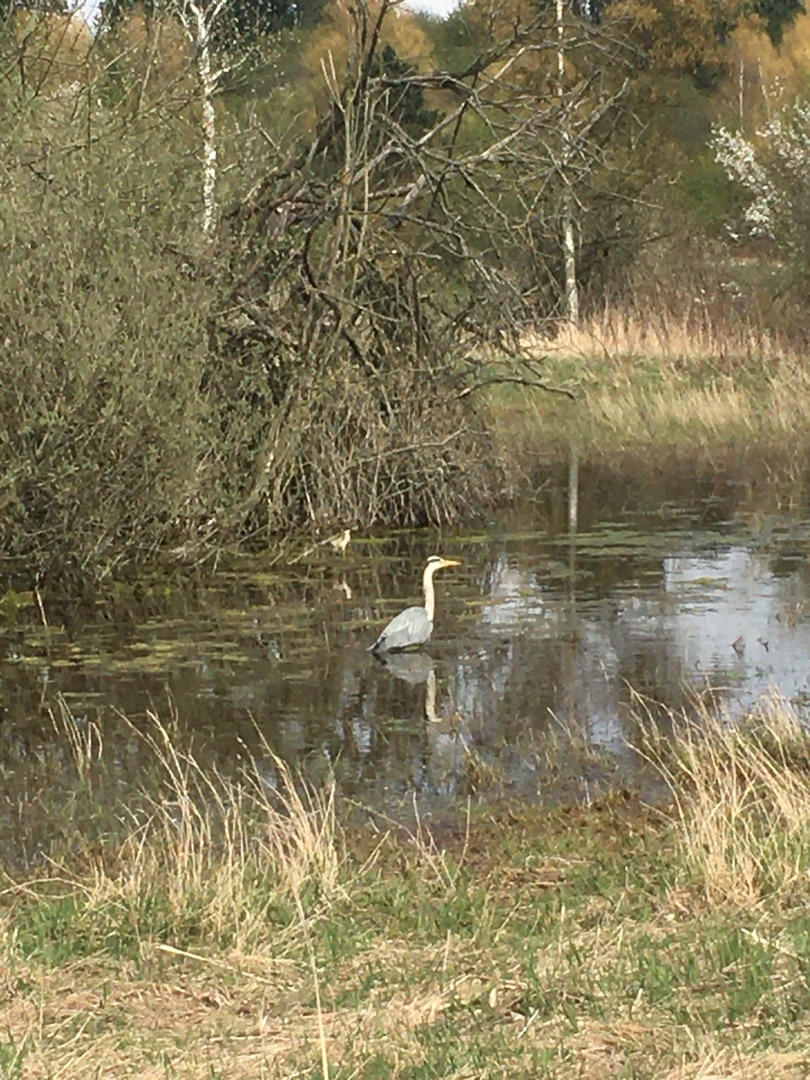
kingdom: Animalia
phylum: Chordata
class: Aves
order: Pelecaniformes
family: Ardeidae
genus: Ardea
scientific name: Ardea cinerea
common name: Fiskehejre
